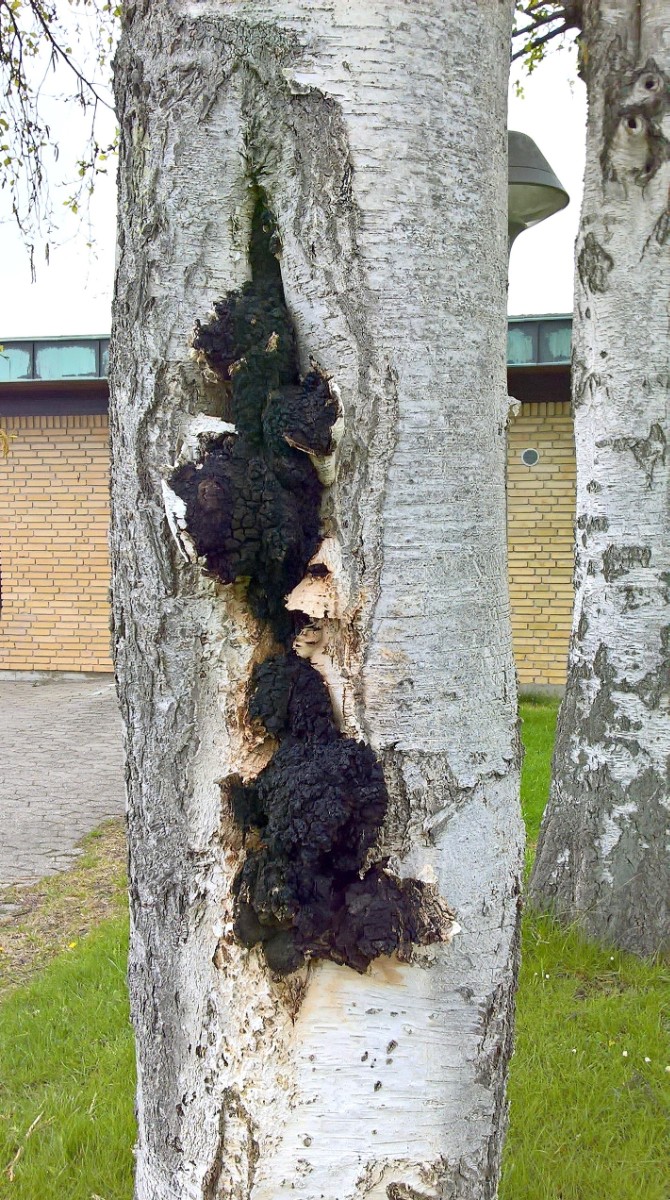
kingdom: Fungi
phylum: Basidiomycota
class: Agaricomycetes
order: Hymenochaetales
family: Hymenochaetaceae
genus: Inonotus
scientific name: Inonotus obliquus
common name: birke-spejlporesvamp
